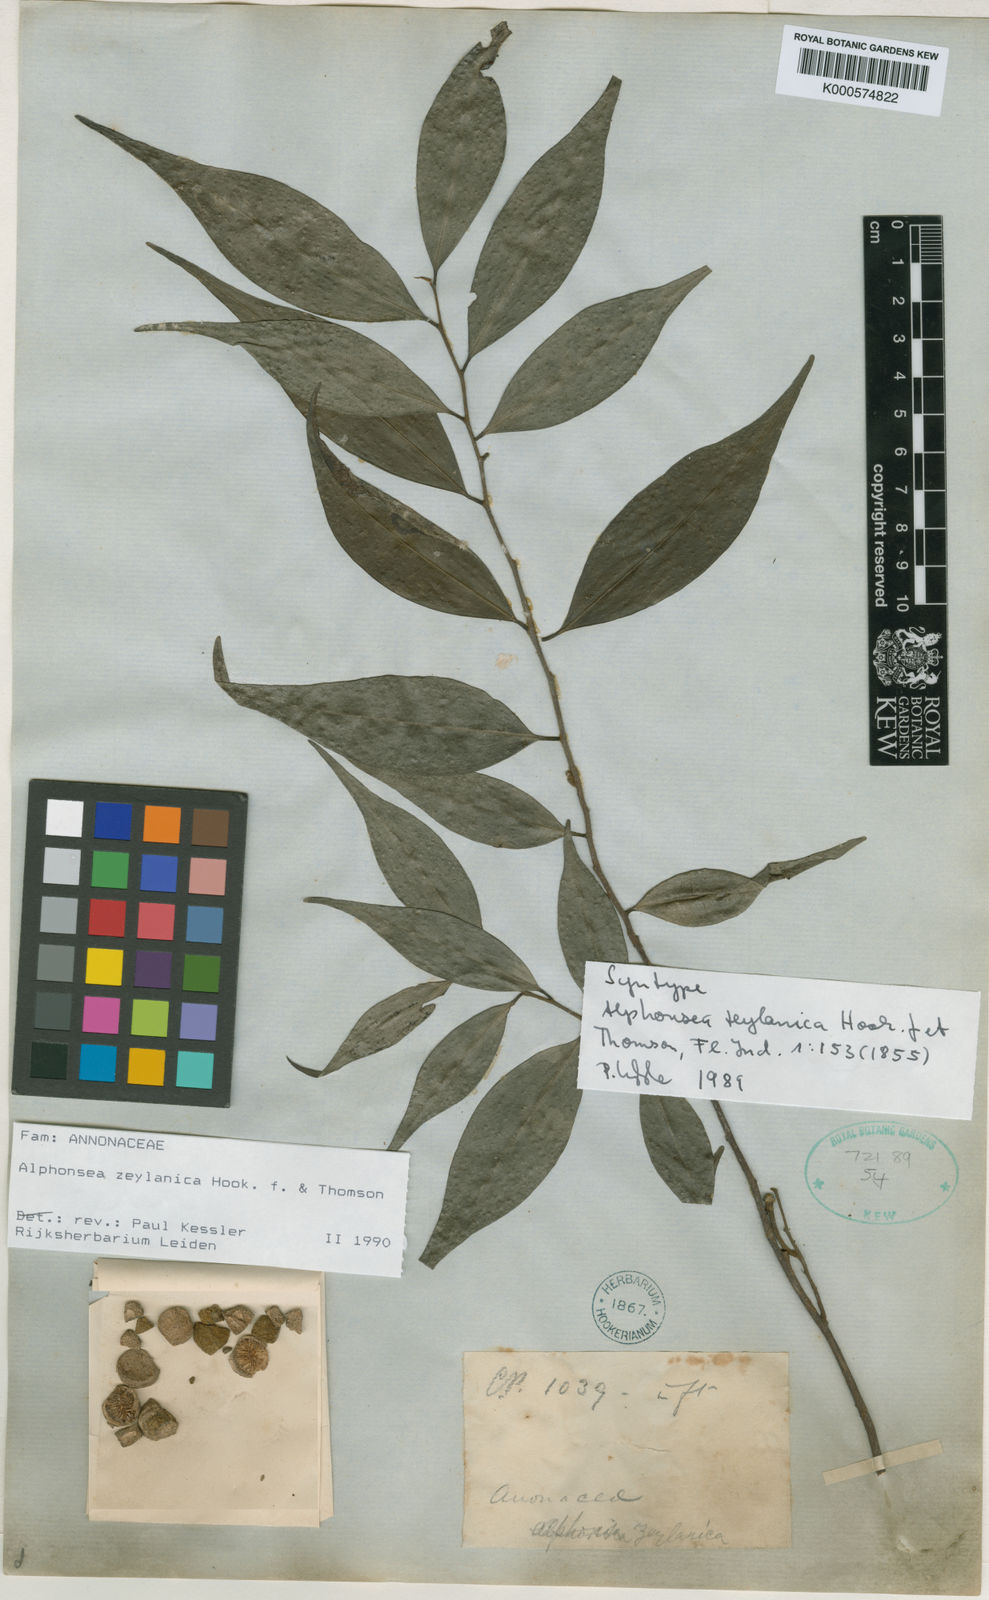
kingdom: Plantae
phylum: Tracheophyta
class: Magnoliopsida
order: Magnoliales
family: Annonaceae
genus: Alphonsea
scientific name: Alphonsea zeylanica
